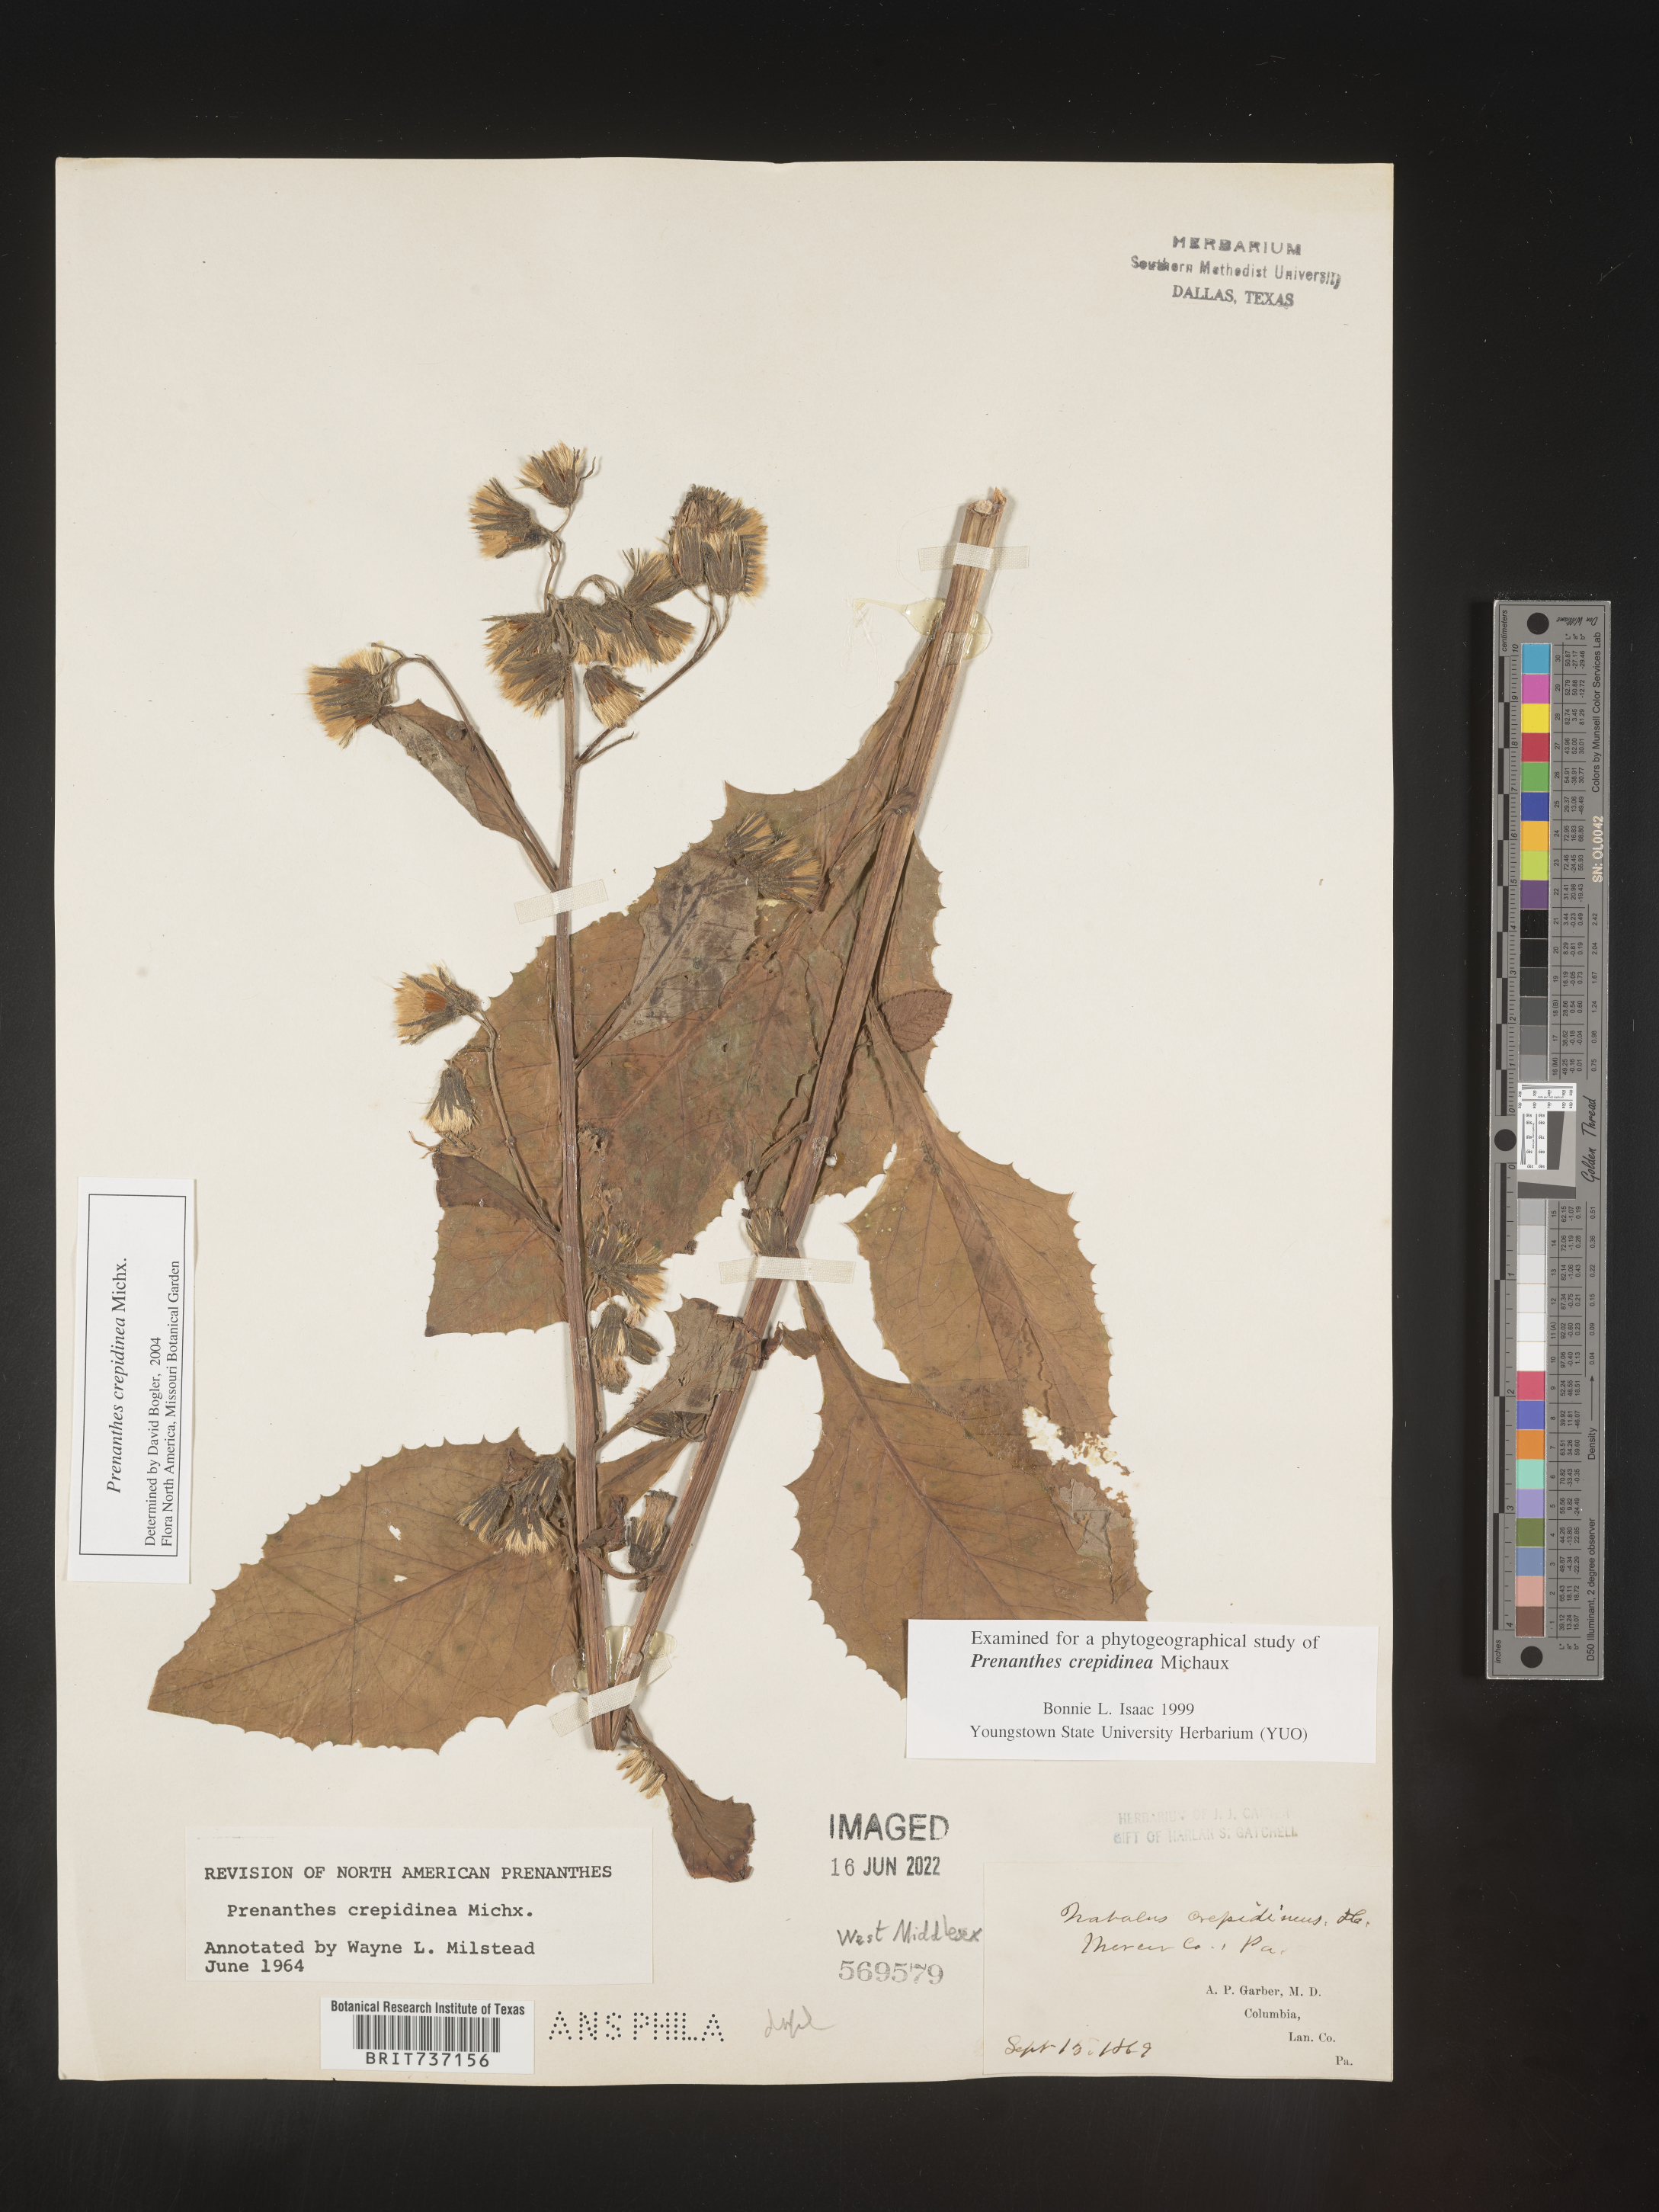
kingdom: Plantae
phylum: Tracheophyta
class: Magnoliopsida
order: Asterales
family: Asteraceae
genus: Prenanthes
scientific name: Prenanthes
